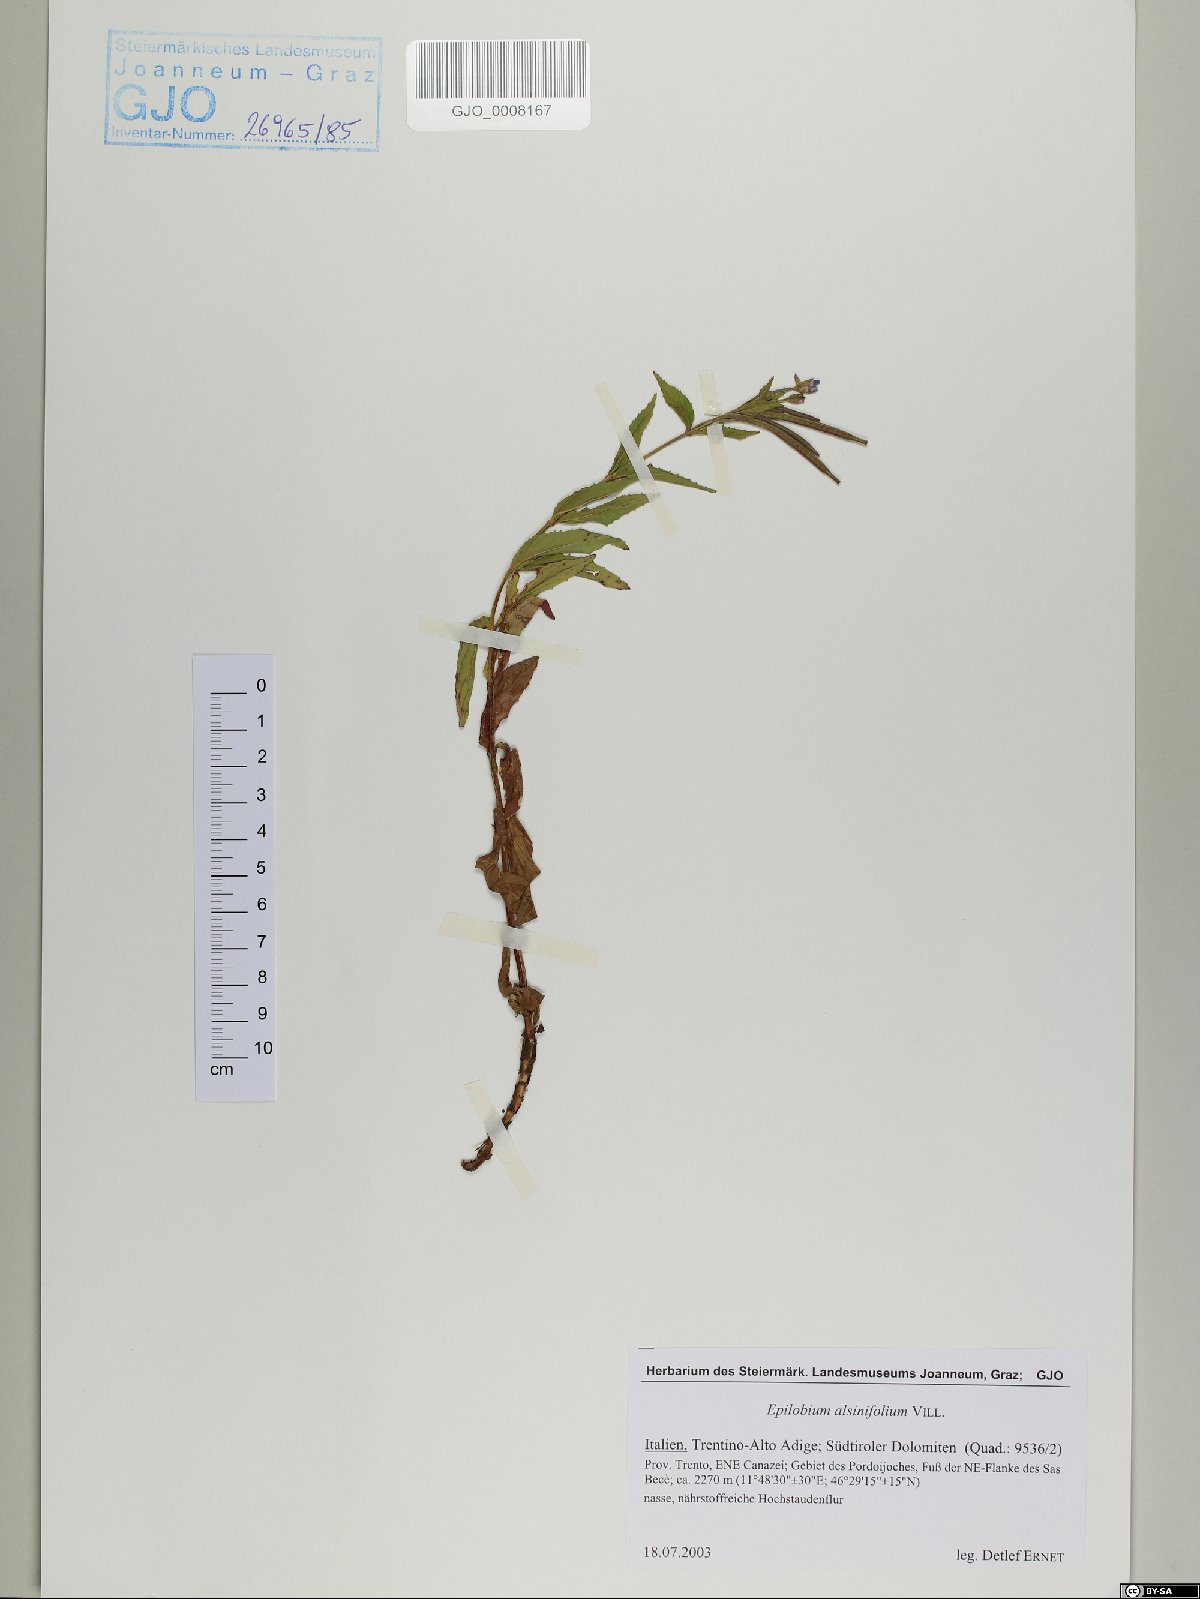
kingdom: Plantae
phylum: Tracheophyta
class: Magnoliopsida
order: Myrtales
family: Onagraceae
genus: Epilobium
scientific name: Epilobium alsinifolium
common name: Chickweed willowherb
